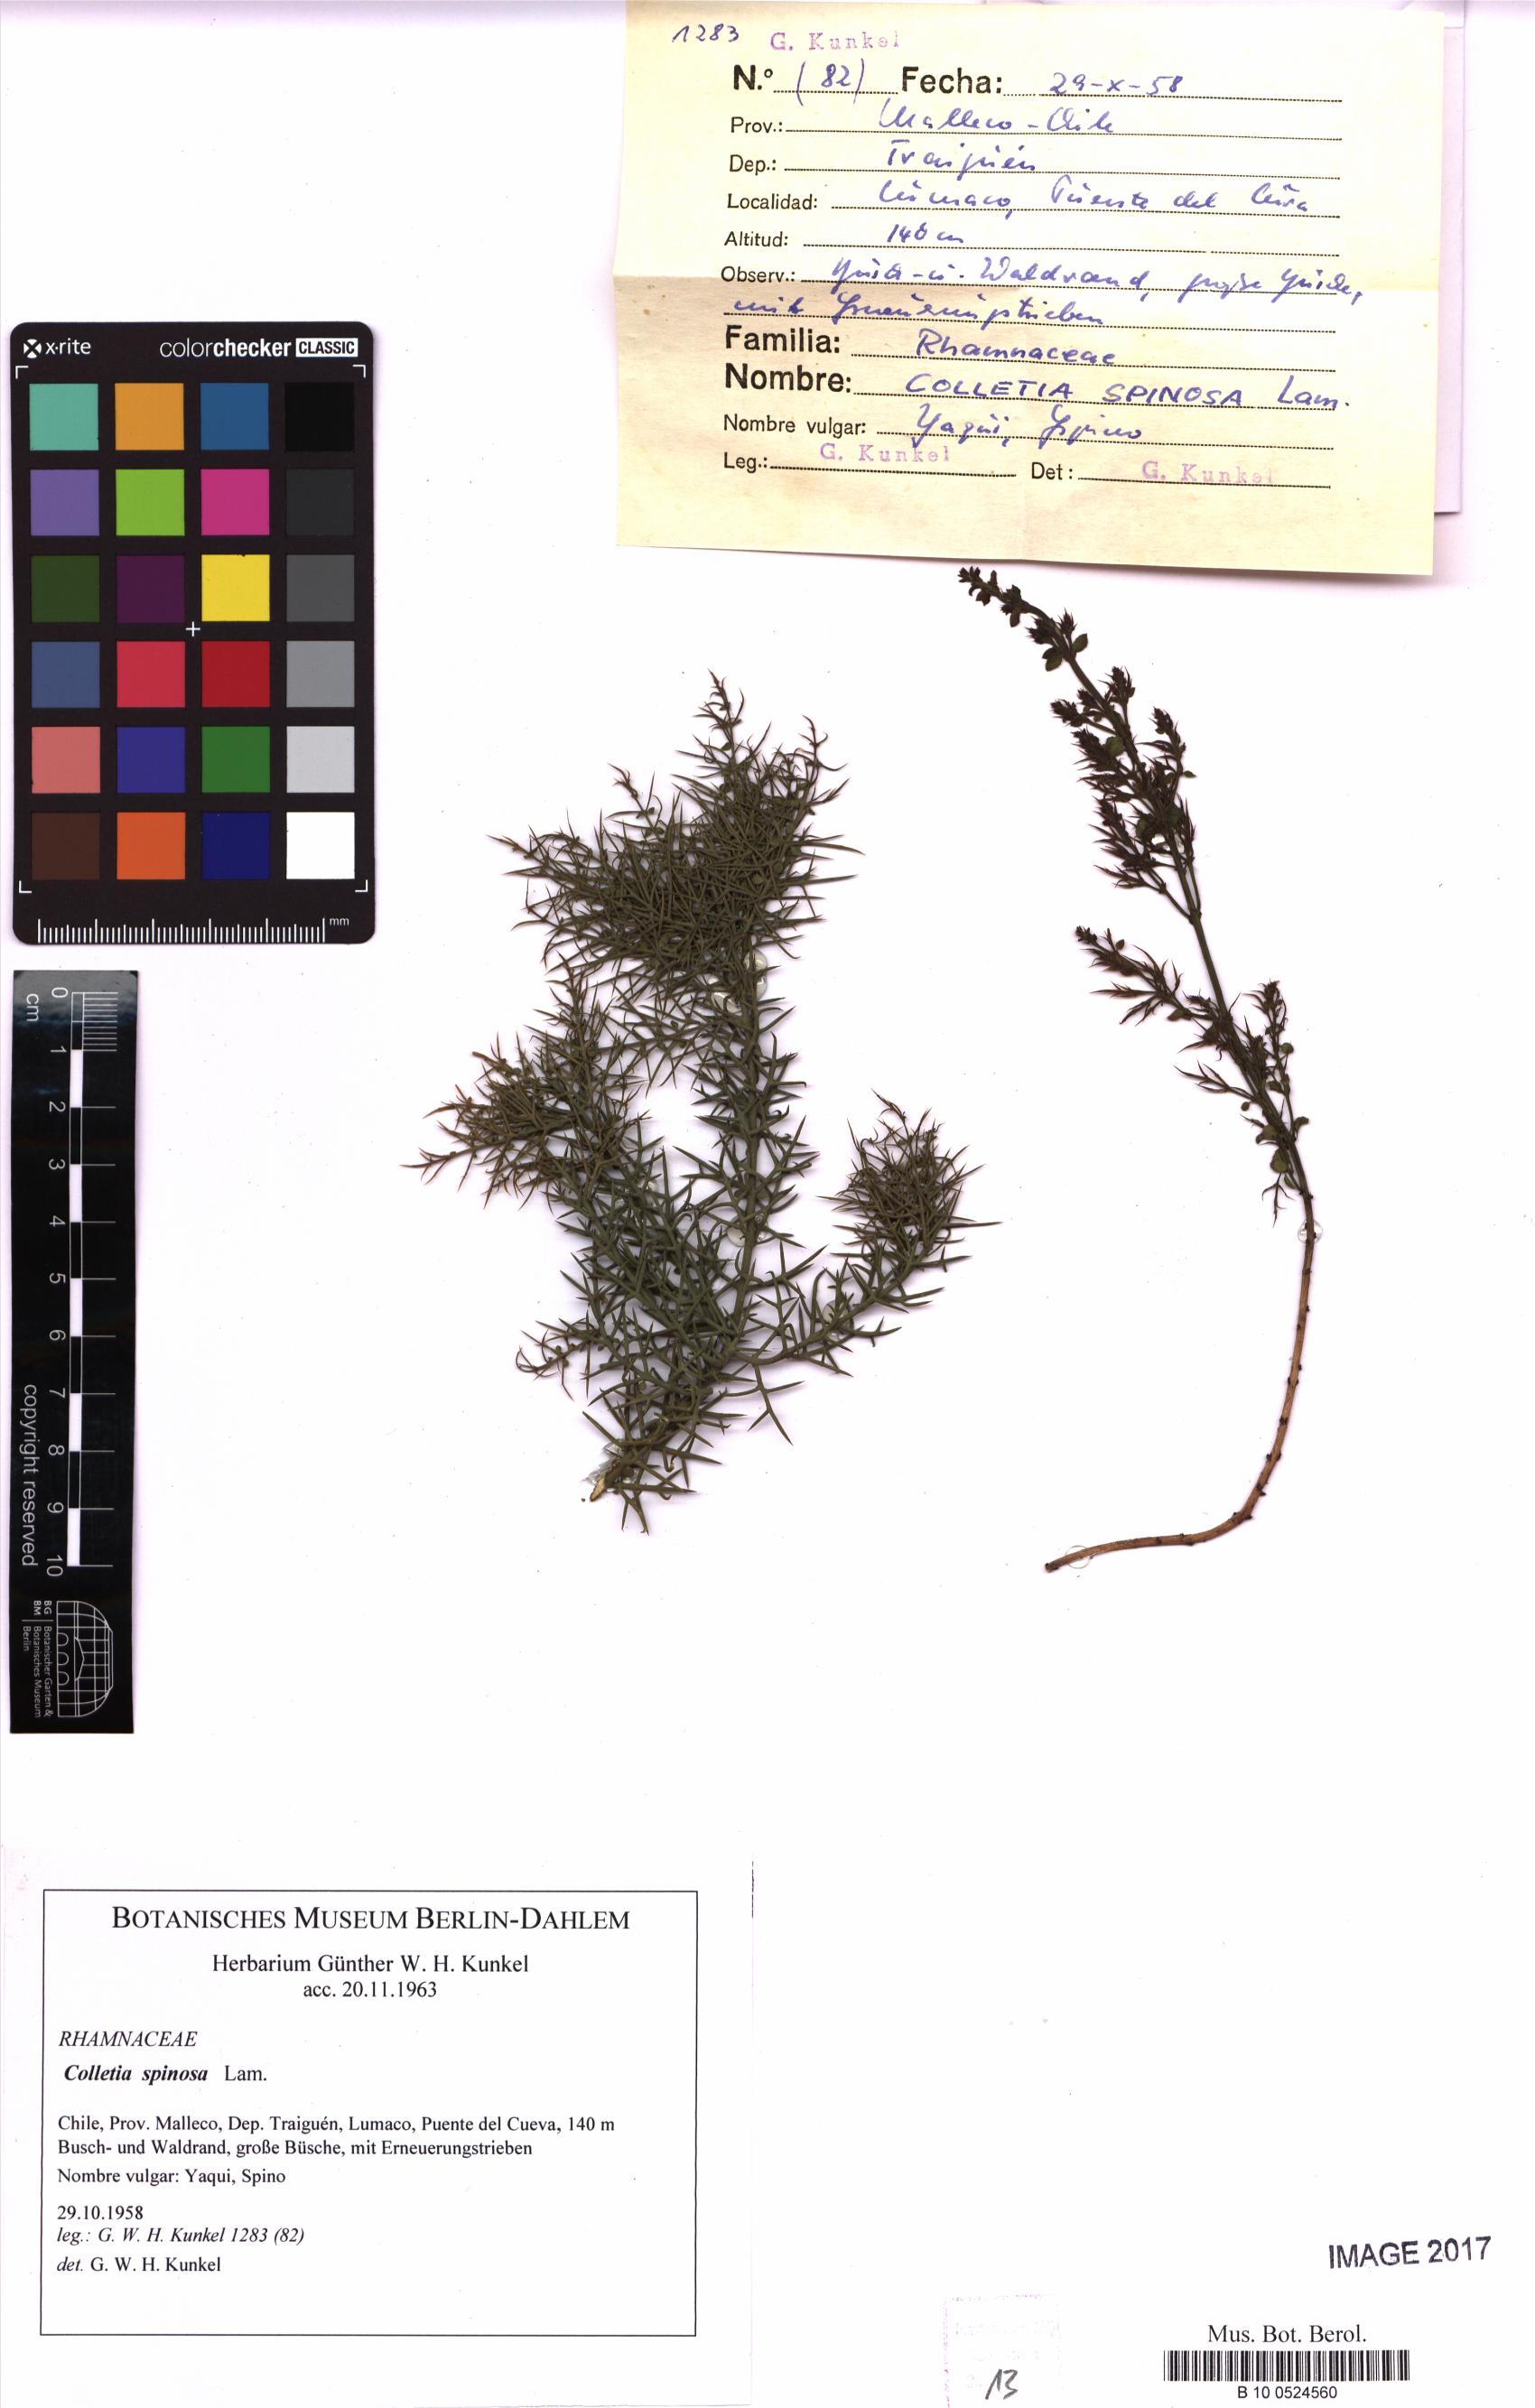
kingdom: Plantae
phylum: Tracheophyta
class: Magnoliopsida
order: Rosales
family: Rhamnaceae
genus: Colletia
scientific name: Colletia spinosissima
